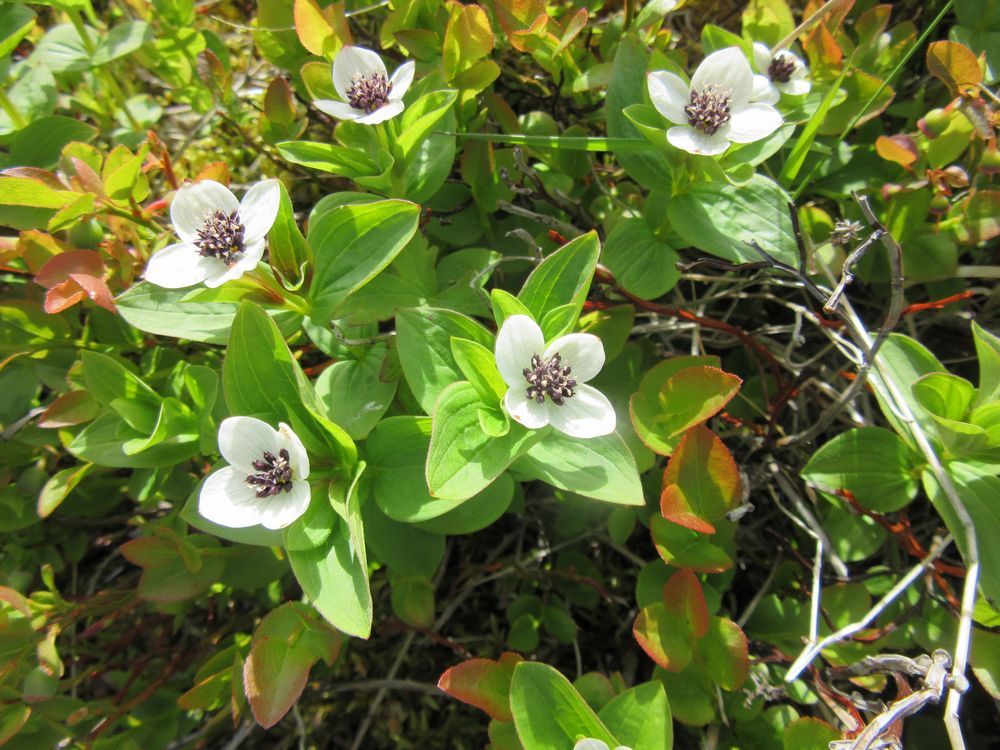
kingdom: Plantae
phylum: Tracheophyta
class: Magnoliopsida
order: Cornales
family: Cornaceae
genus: Cornus
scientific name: Cornus suecica
